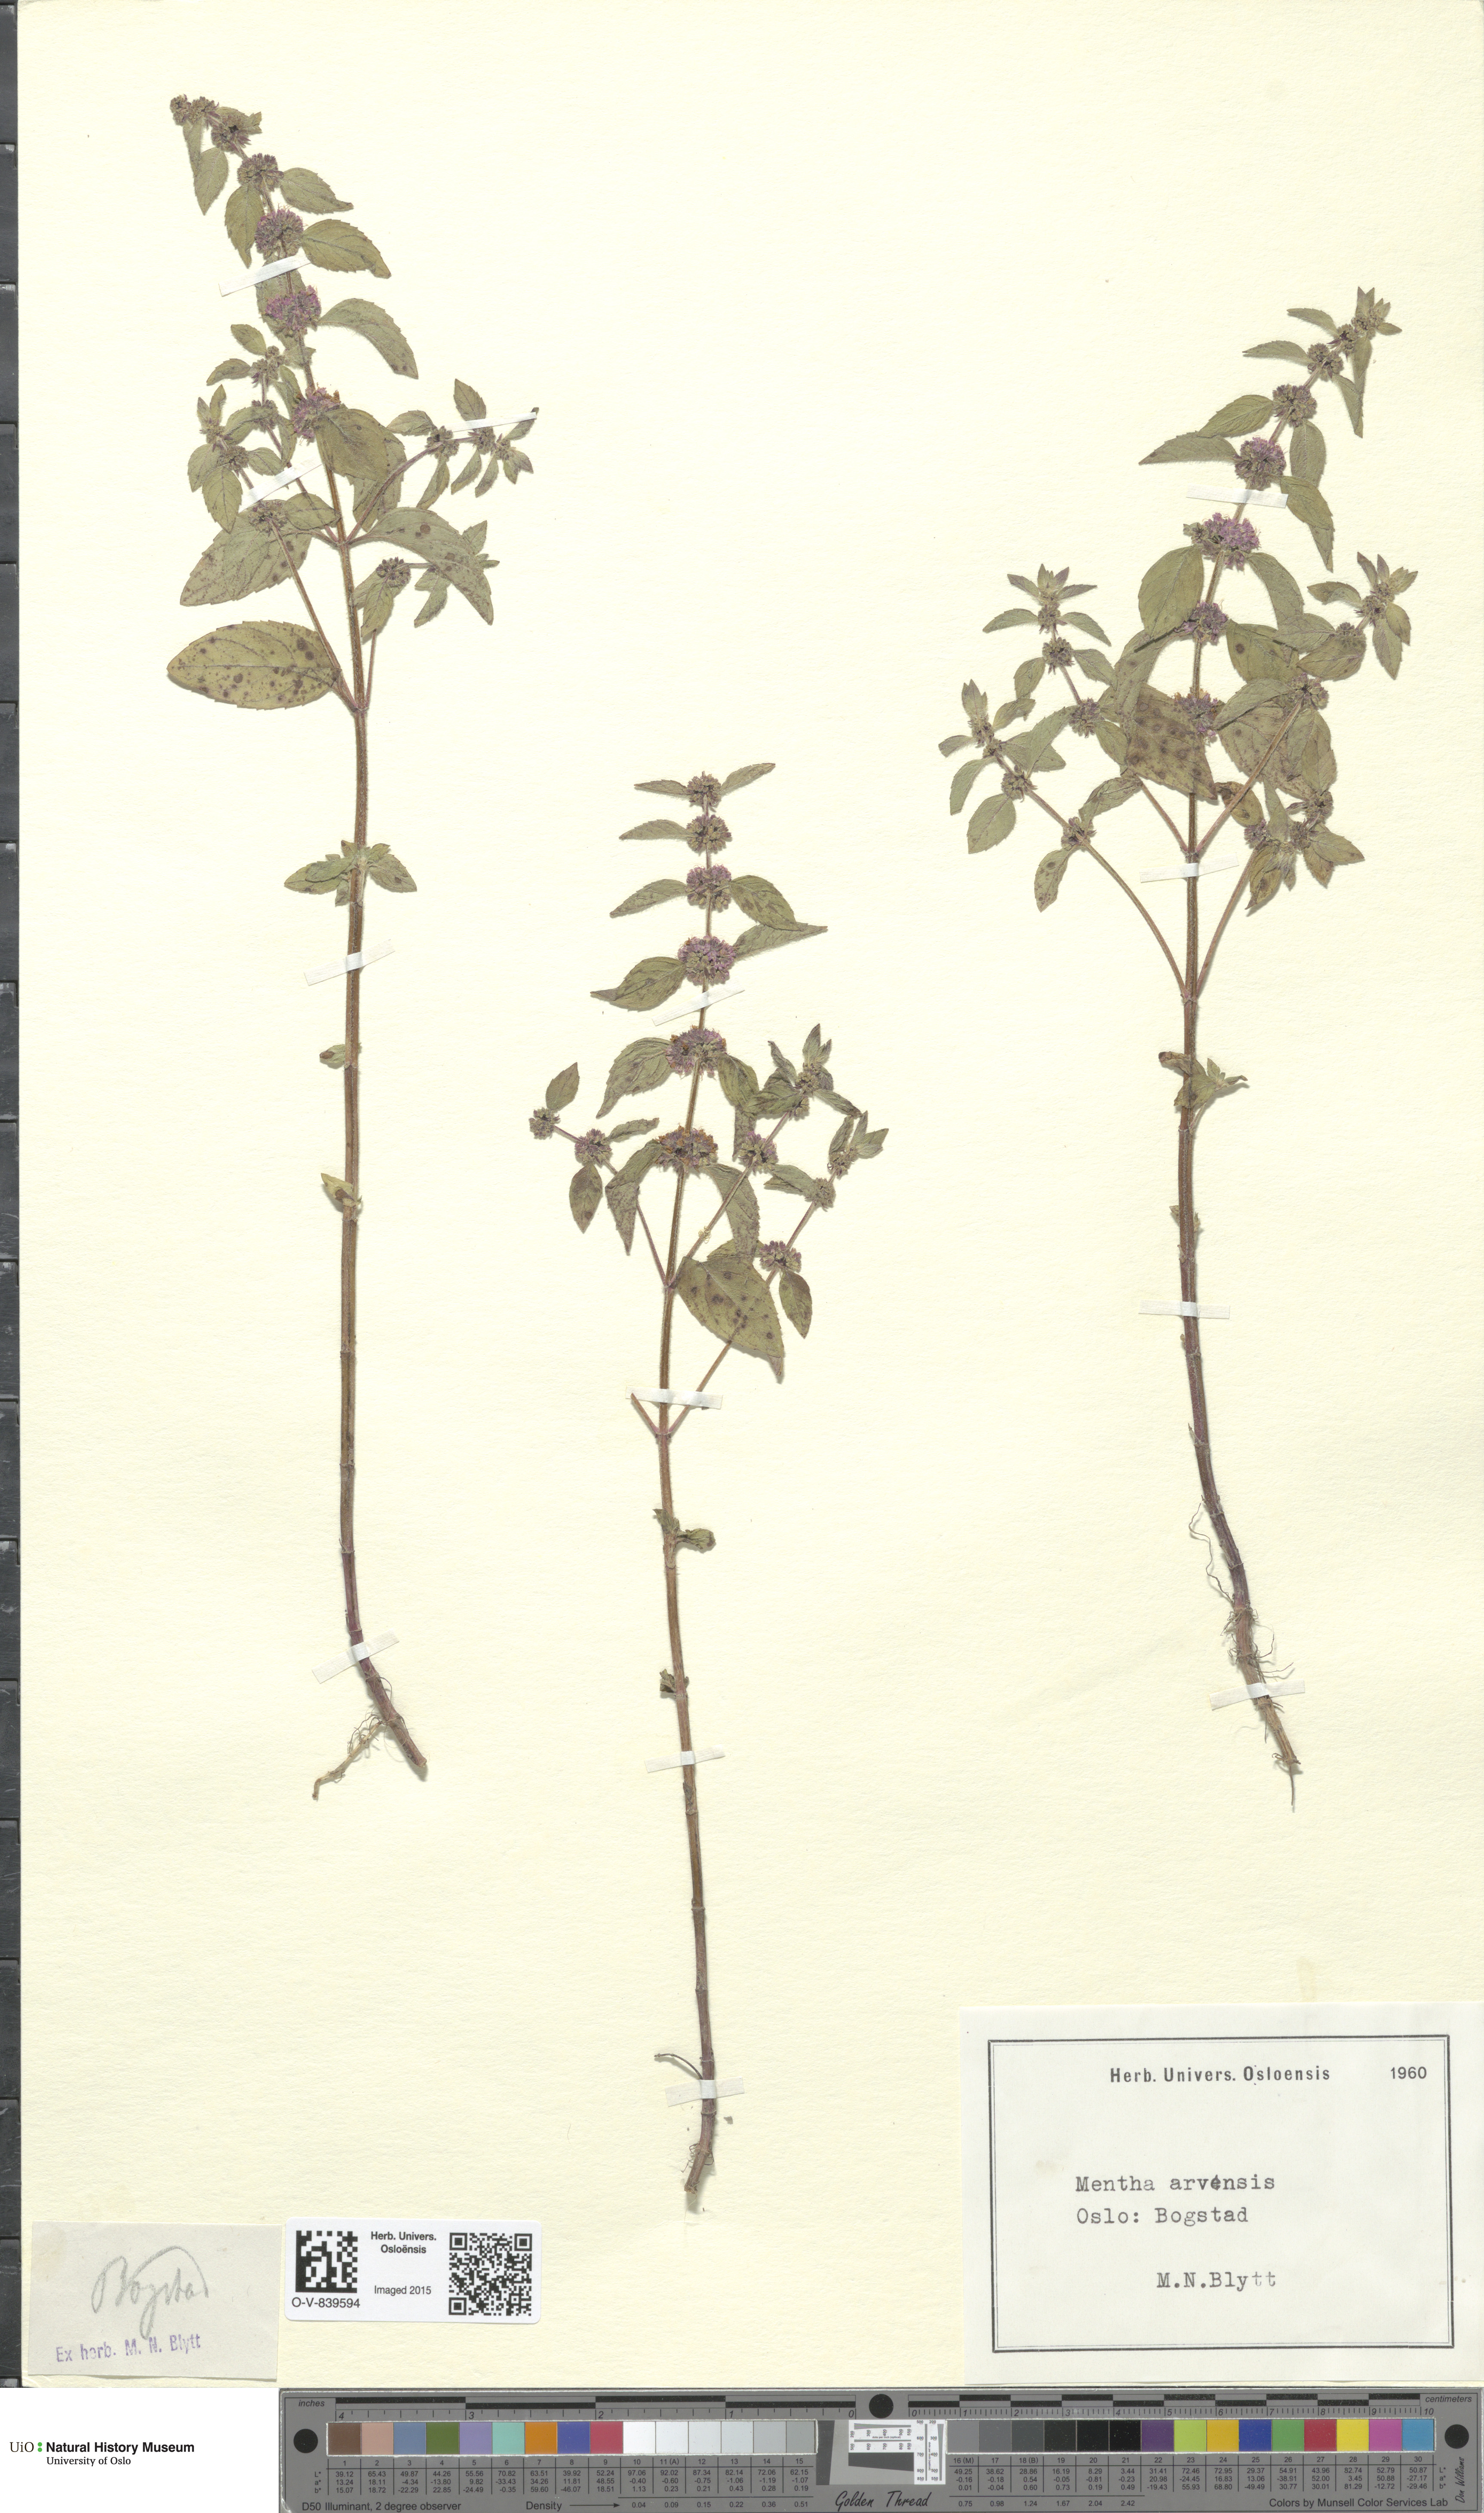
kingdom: Plantae
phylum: Tracheophyta
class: Magnoliopsida
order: Lamiales
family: Lamiaceae
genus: Mentha
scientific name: Mentha arvensis
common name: Corn mint
